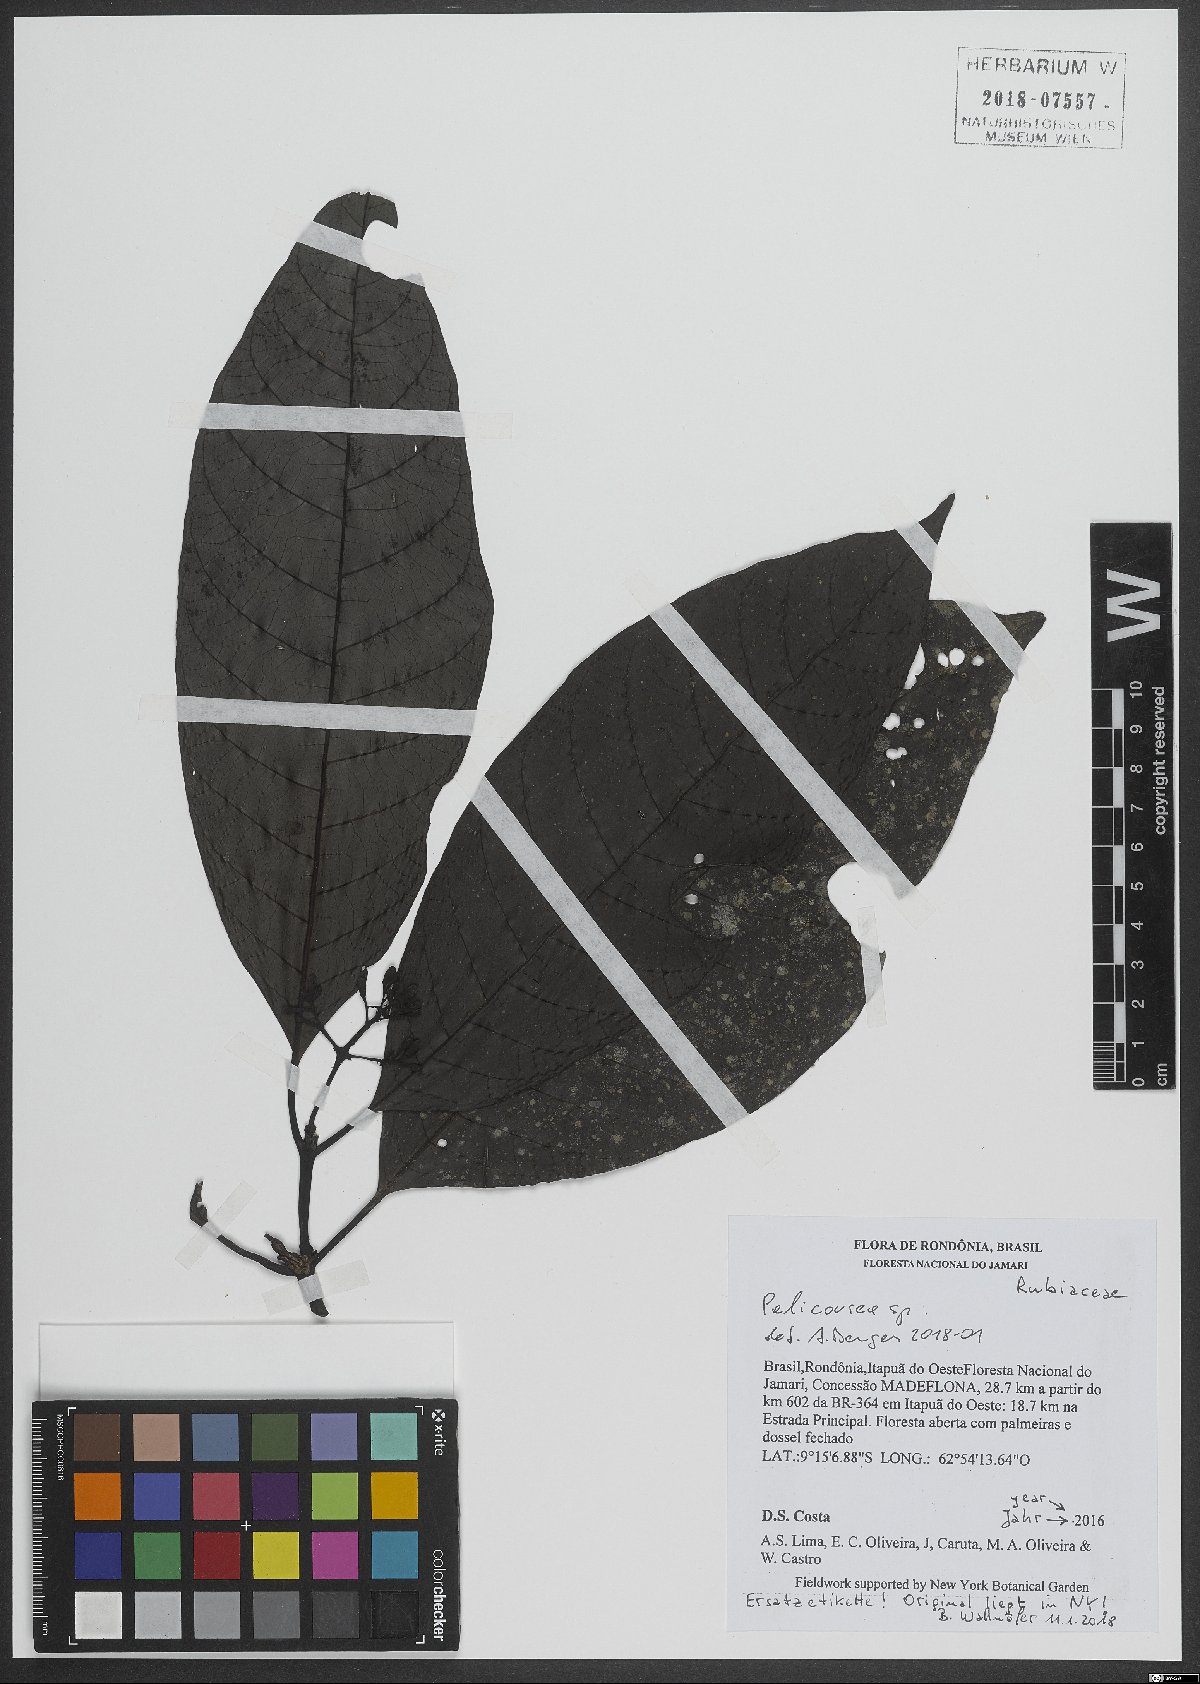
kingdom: Plantae
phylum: Tracheophyta
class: Magnoliopsida
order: Gentianales
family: Rubiaceae
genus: Palicourea
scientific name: Palicourea
